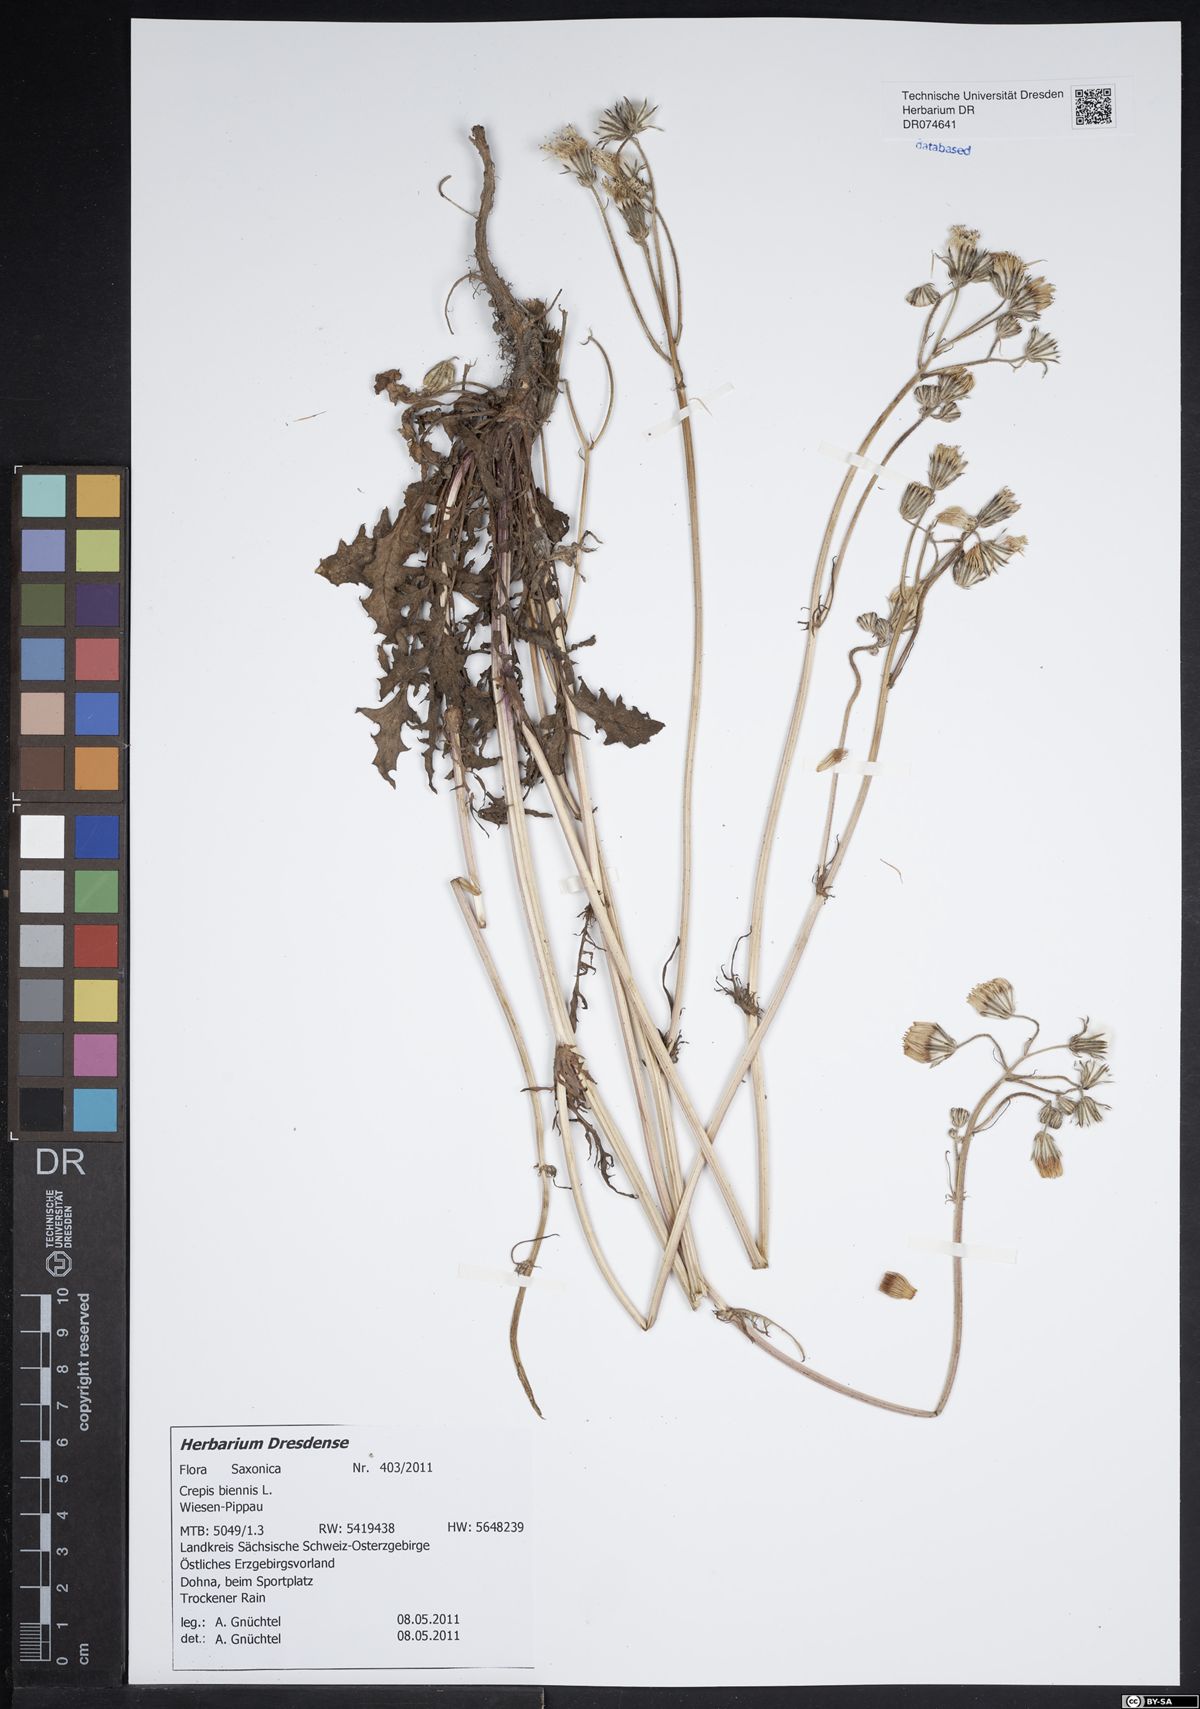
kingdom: Plantae
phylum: Tracheophyta
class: Magnoliopsida
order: Asterales
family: Asteraceae
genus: Crepis
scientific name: Crepis biennis
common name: Rough hawk's-beard
